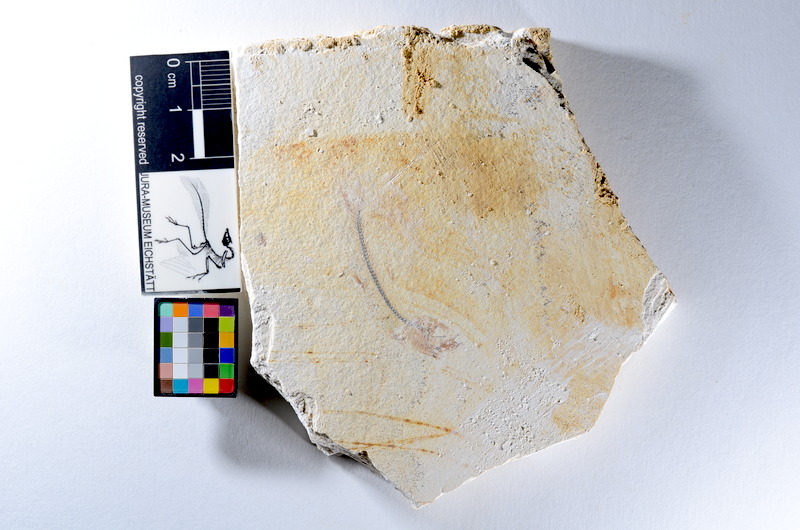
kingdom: Animalia
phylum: Chordata
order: Salmoniformes
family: Orthogonikleithridae
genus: Orthogonikleithrus
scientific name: Orthogonikleithrus hoelli
